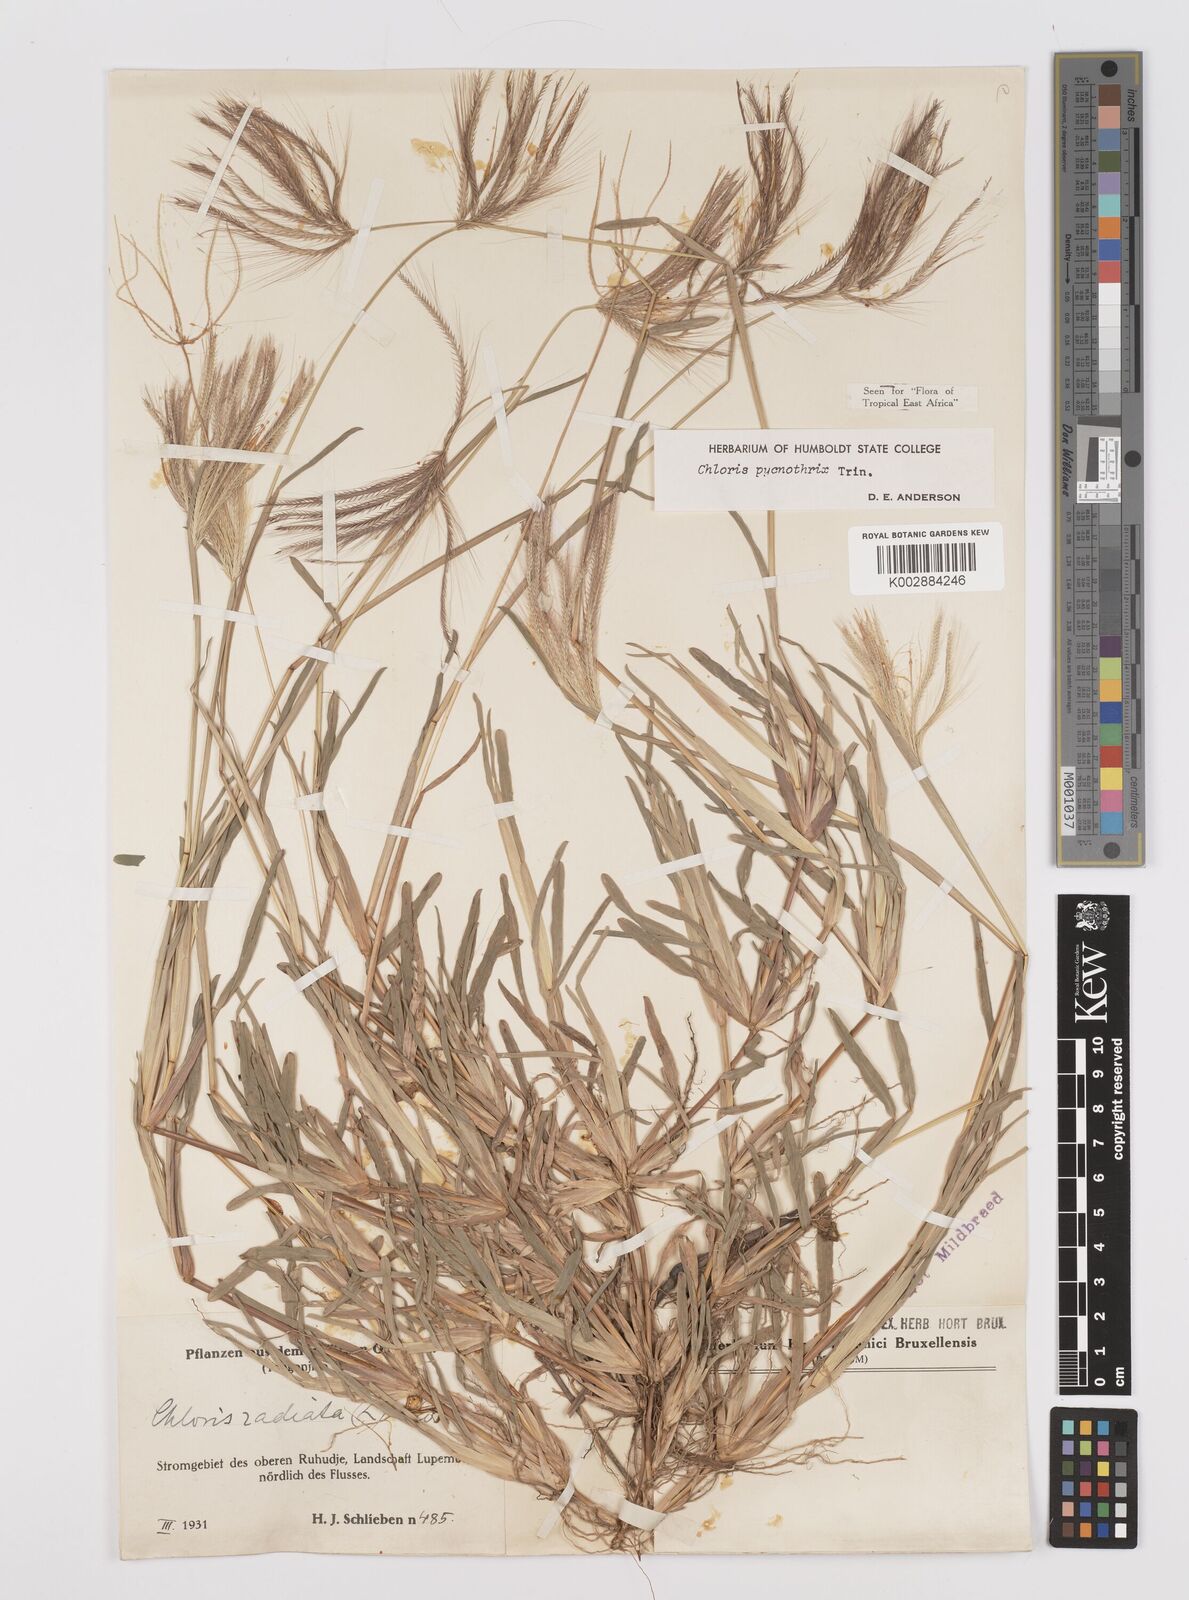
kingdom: Plantae
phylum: Tracheophyta
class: Liliopsida
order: Poales
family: Poaceae
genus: Chloris
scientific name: Chloris pycnothrix
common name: Spiderweb chloris
